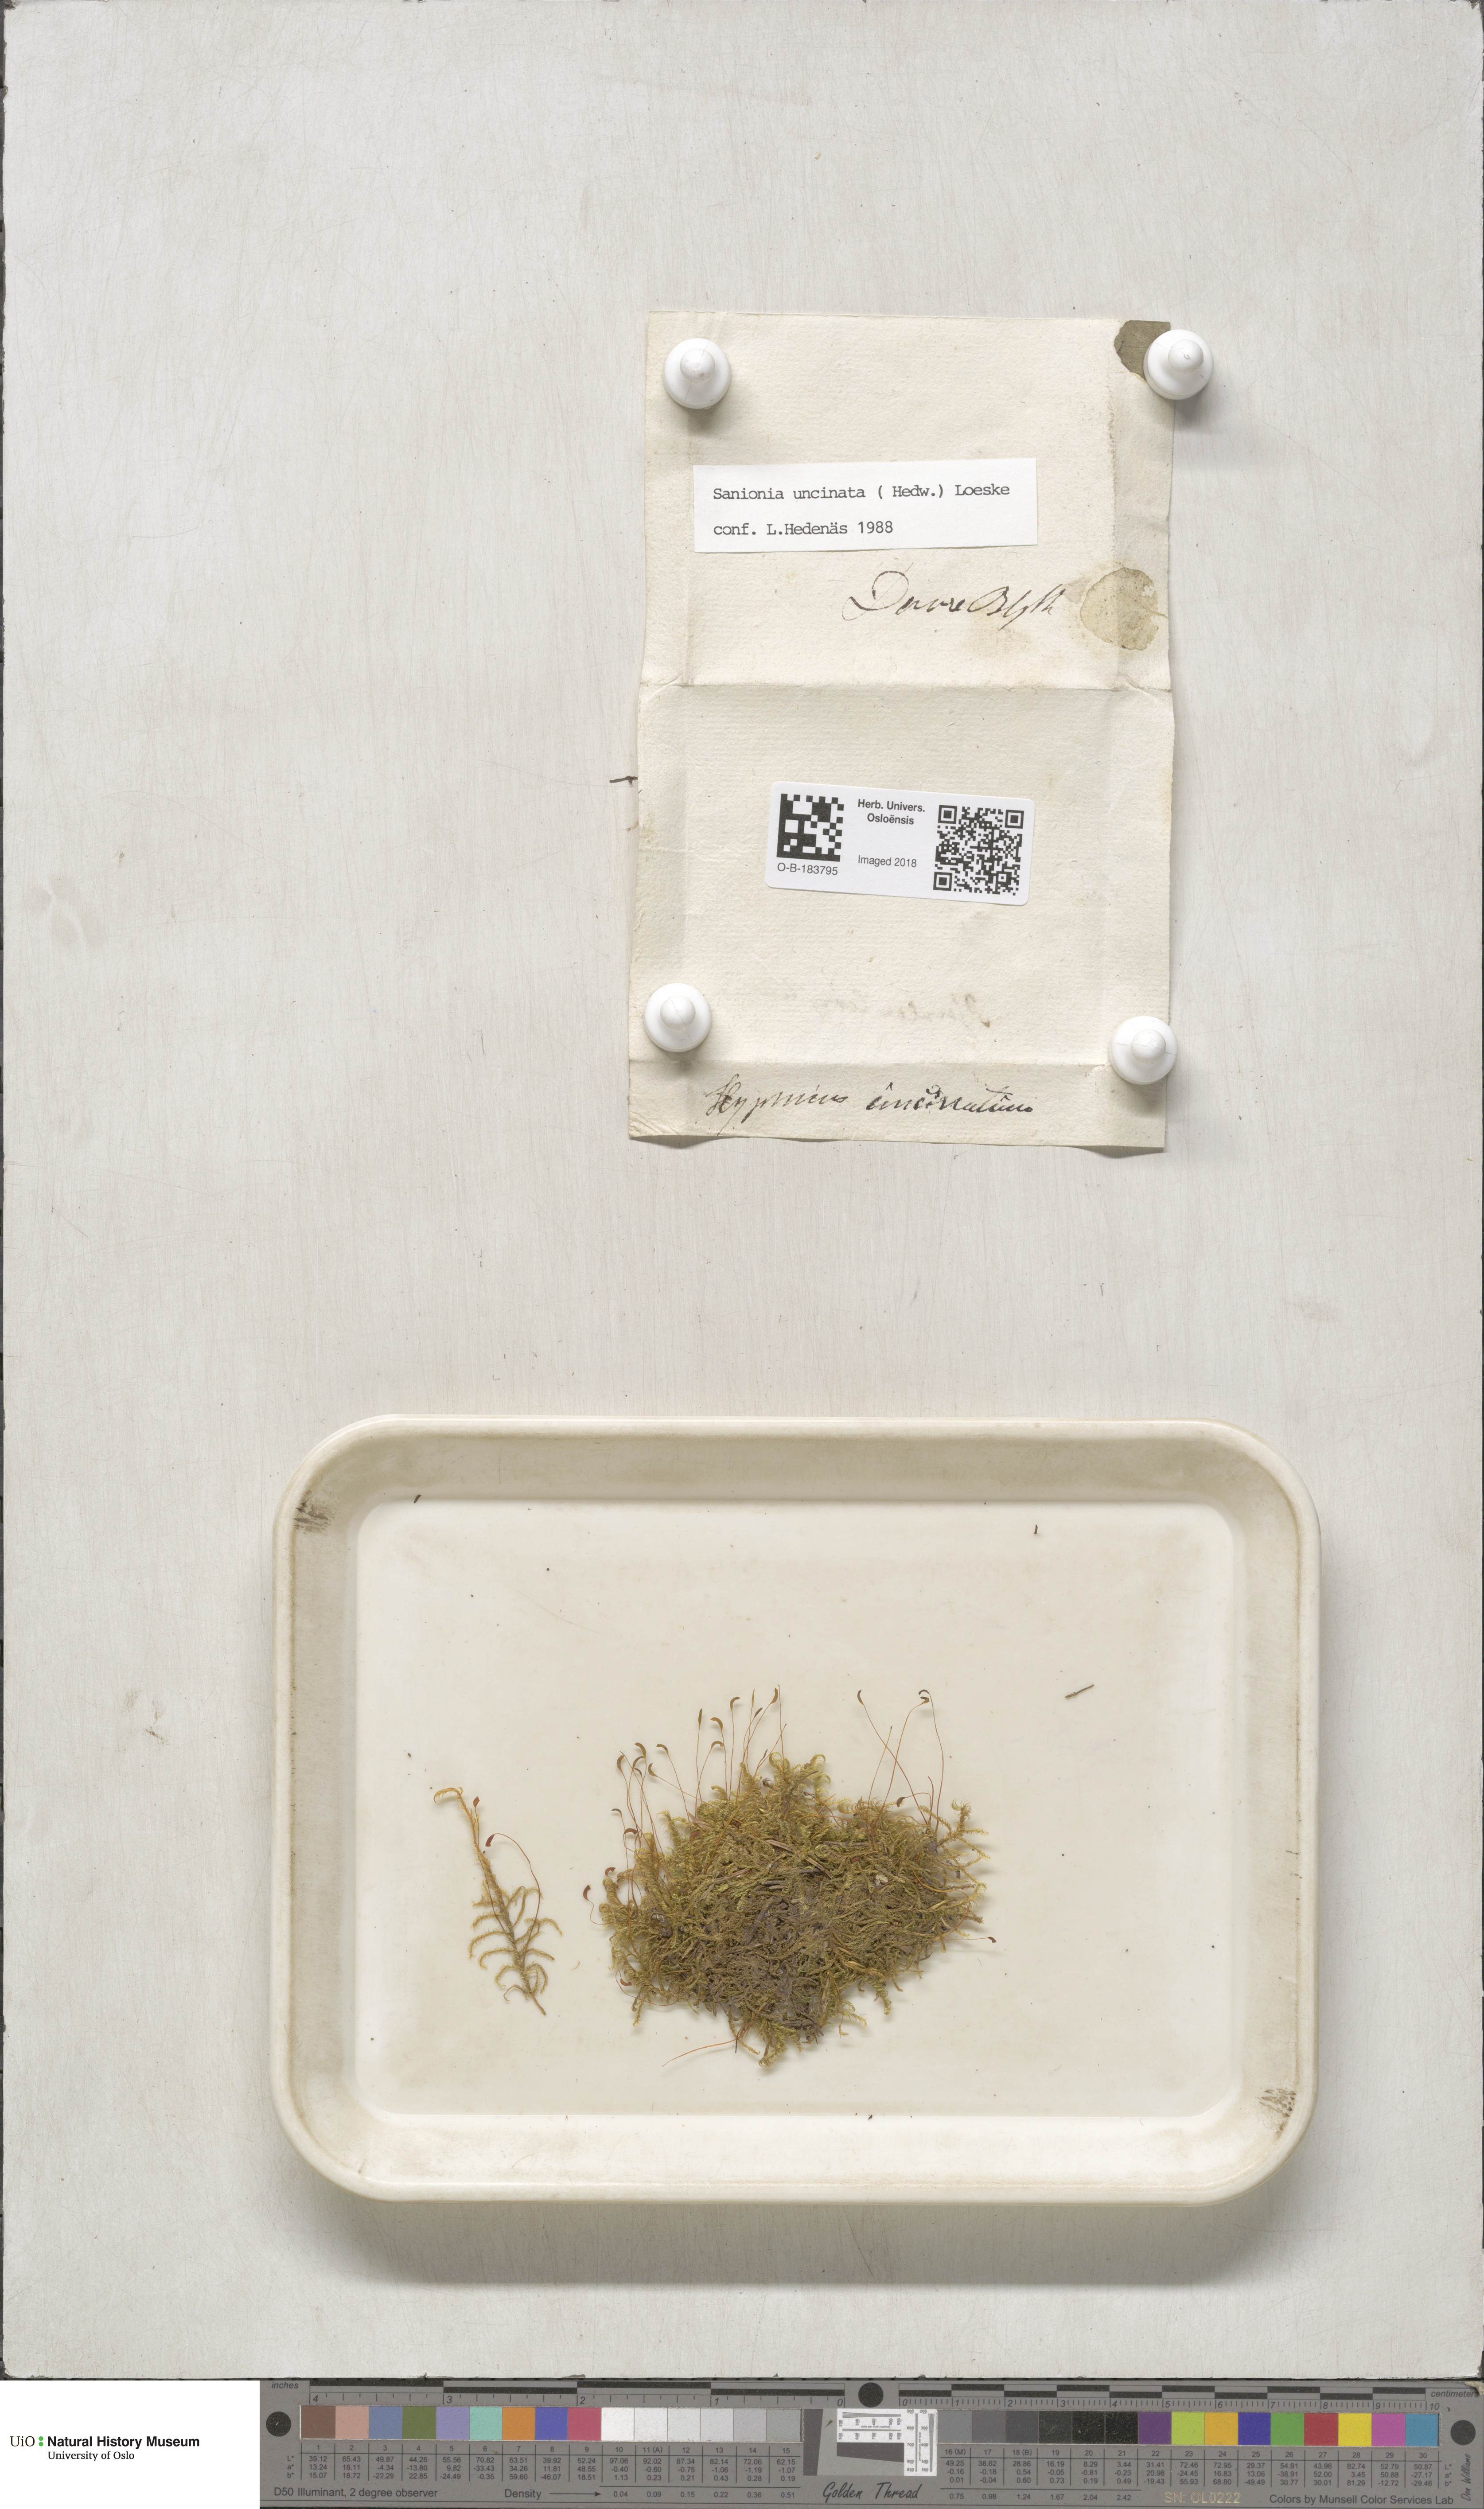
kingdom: Plantae
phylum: Bryophyta
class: Bryopsida
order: Hypnales
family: Scorpidiaceae
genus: Sanionia
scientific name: Sanionia uncinata
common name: Sickle moss
